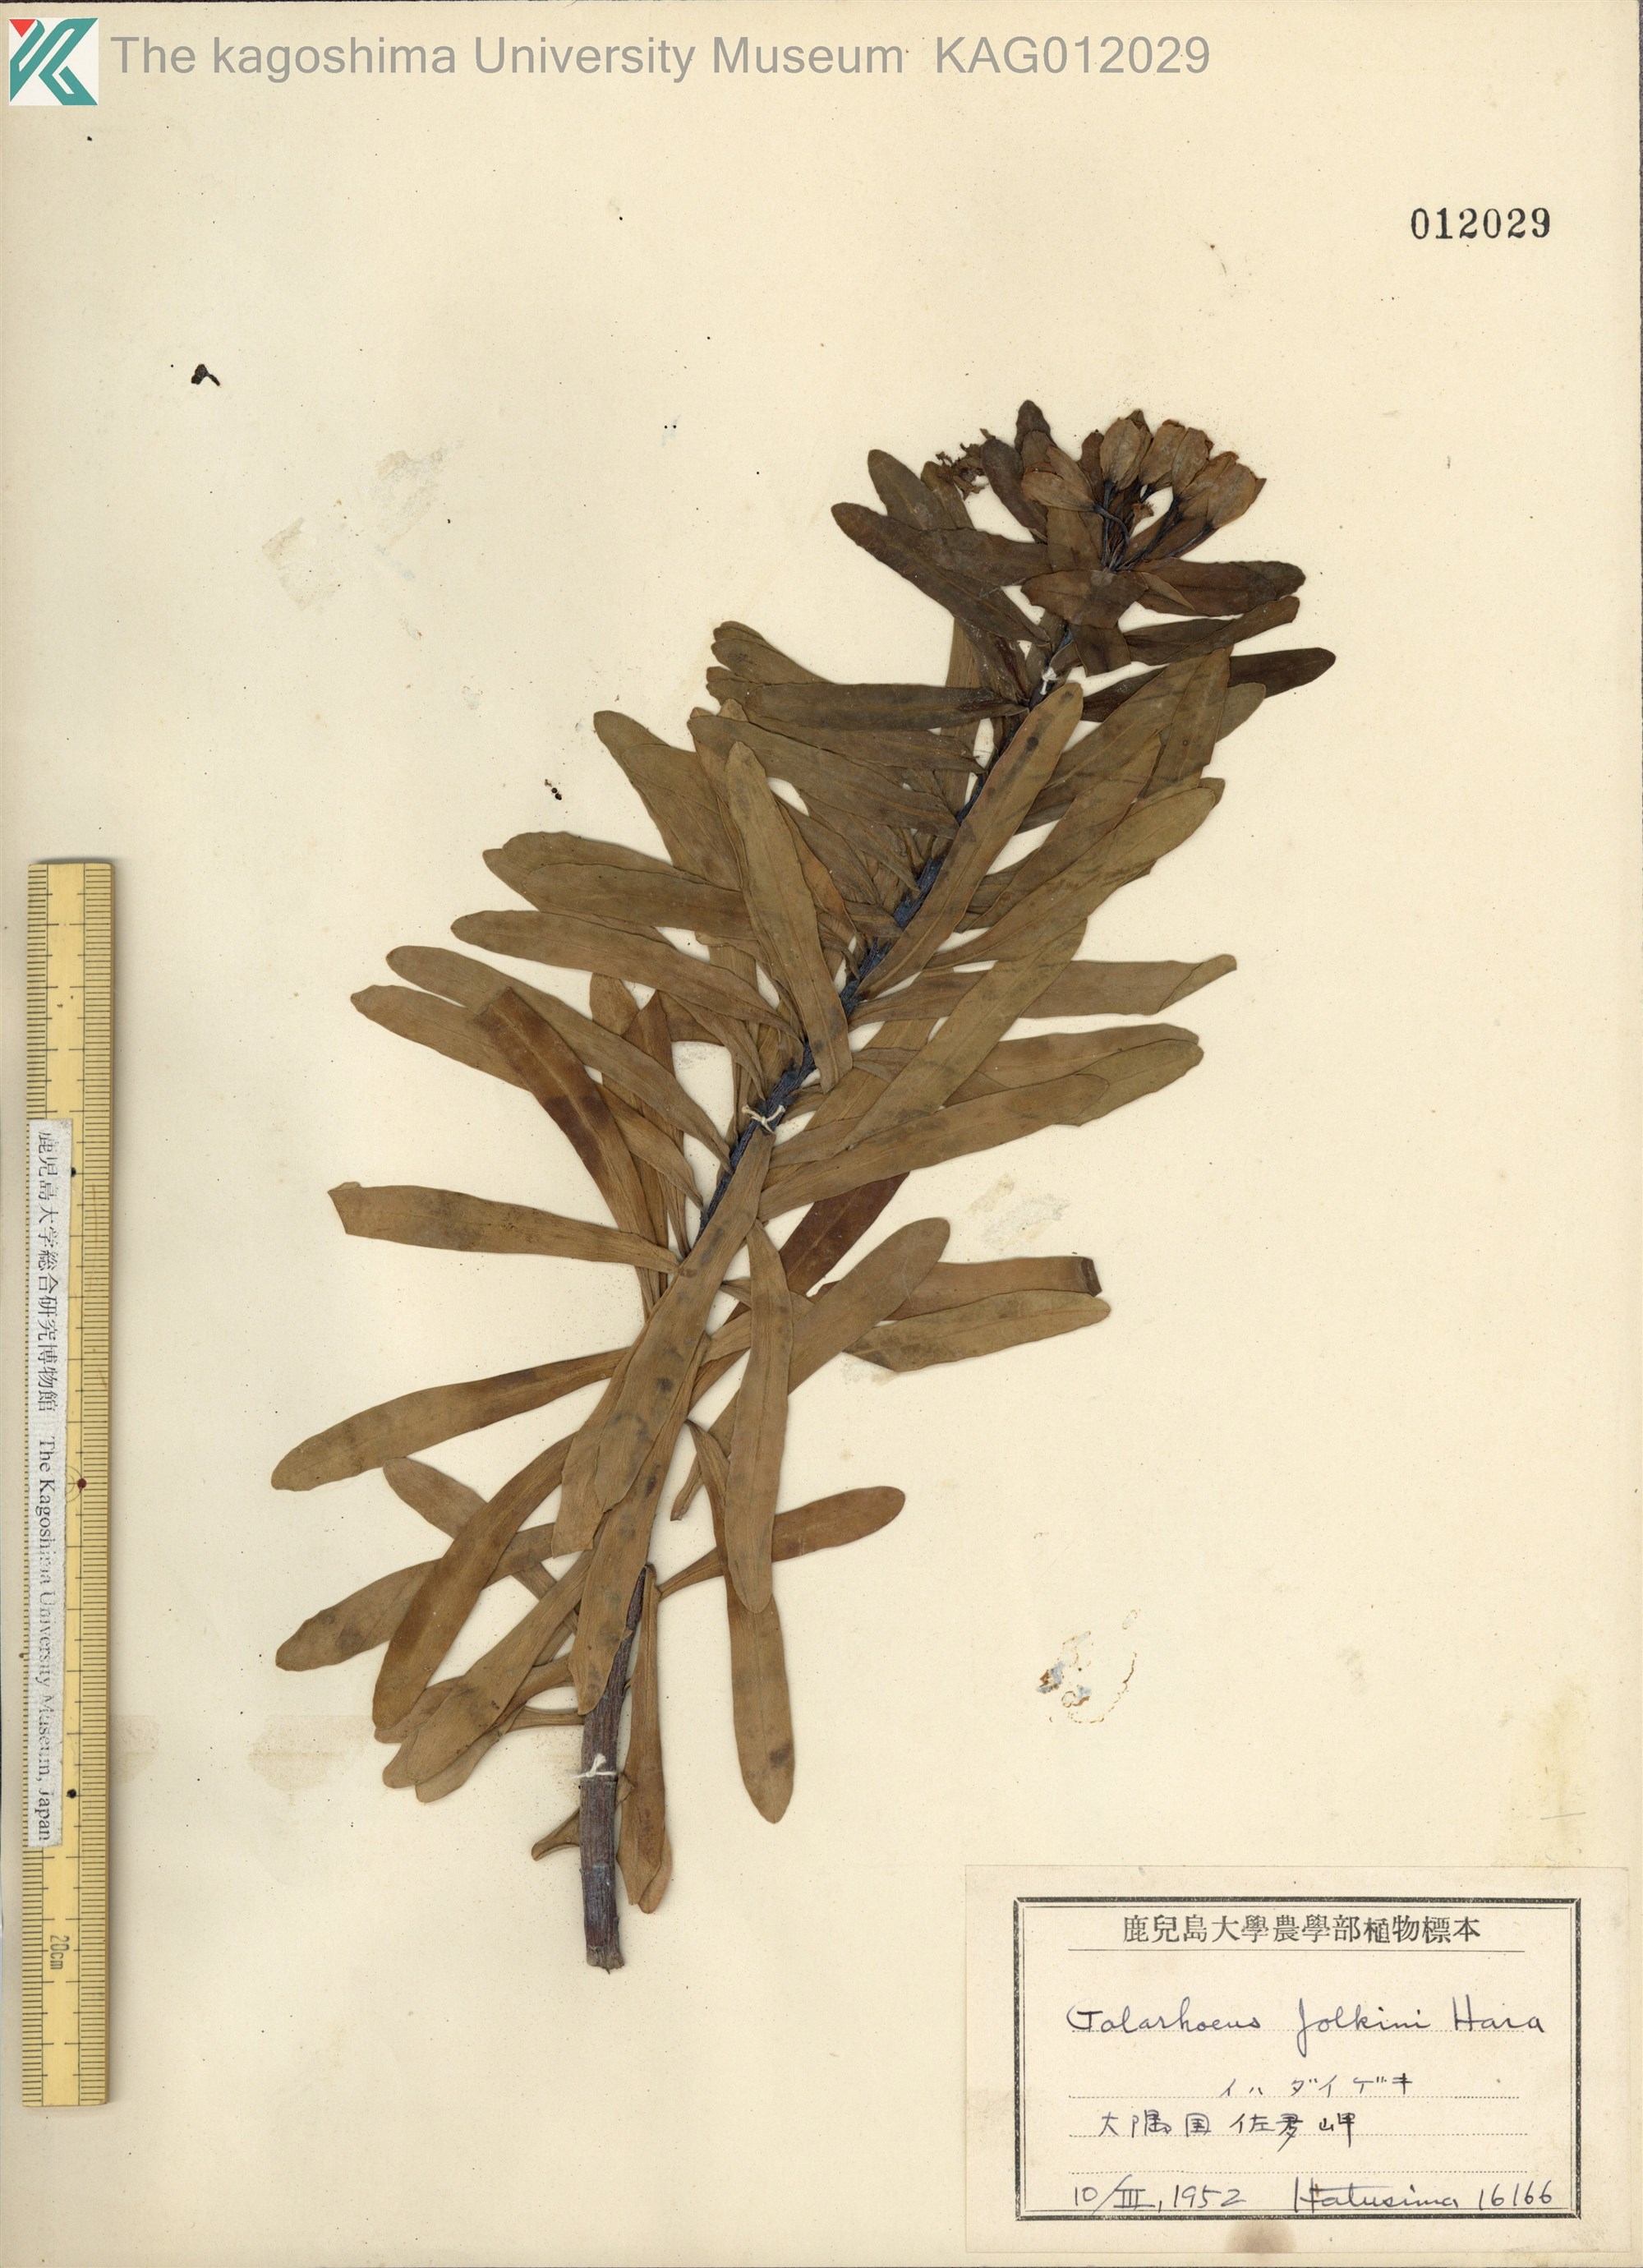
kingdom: Plantae
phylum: Tracheophyta
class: Magnoliopsida
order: Malpighiales
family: Euphorbiaceae
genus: Euphorbia
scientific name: Euphorbia jolkinii
